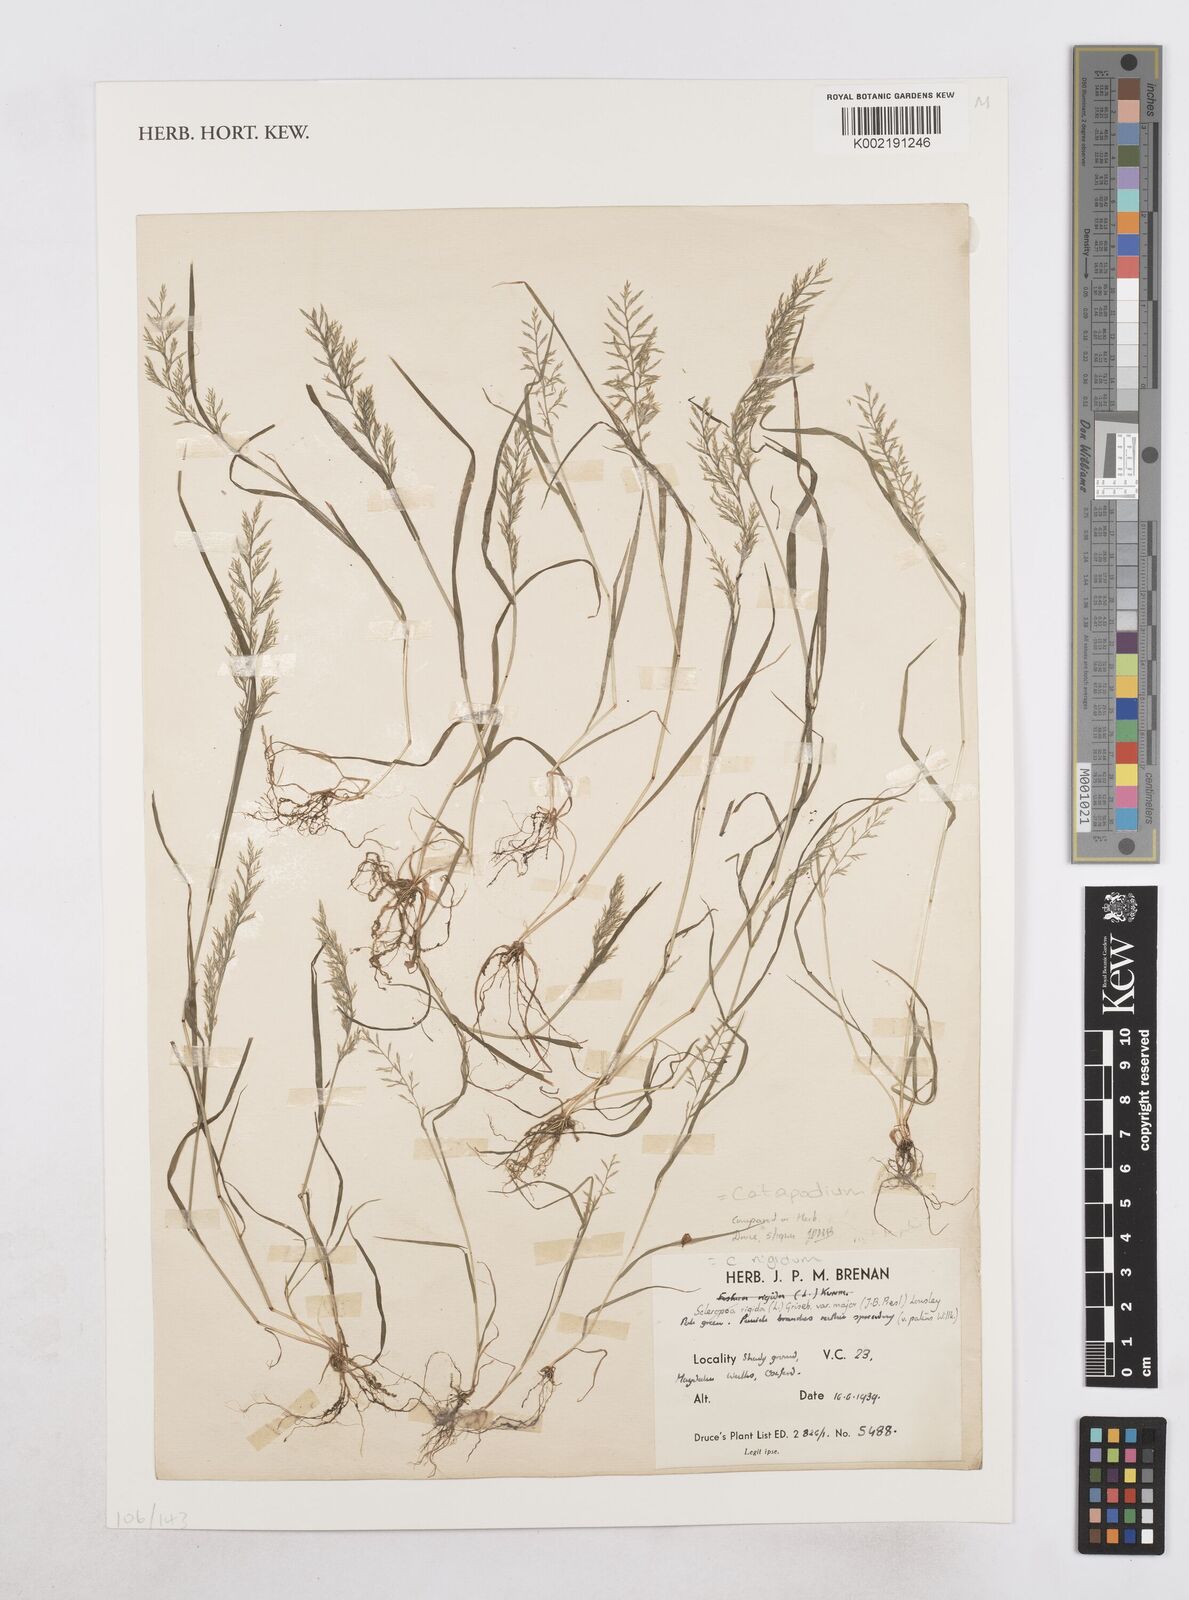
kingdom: Plantae
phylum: Tracheophyta
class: Liliopsida
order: Poales
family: Poaceae
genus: Catapodium
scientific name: Catapodium rigidum
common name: Fern-grass
